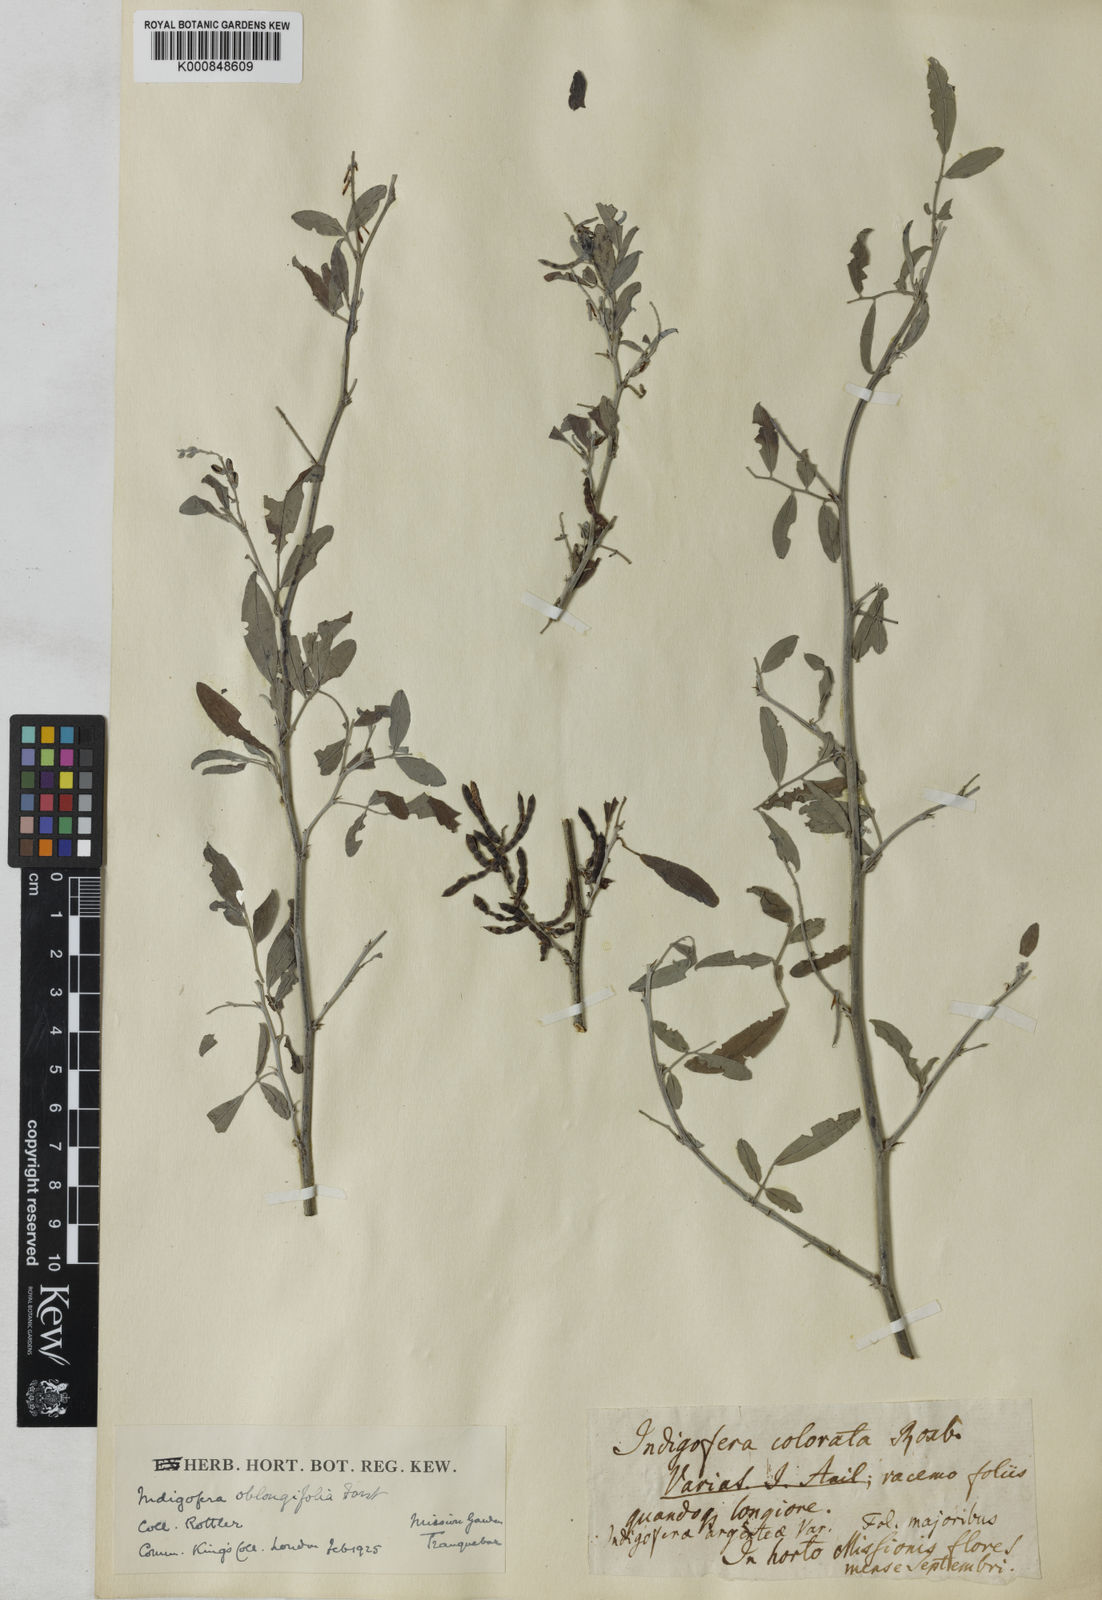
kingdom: Plantae
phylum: Tracheophyta
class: Magnoliopsida
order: Fabales
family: Fabaceae
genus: Indigofera
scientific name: Indigofera oblongifolia
